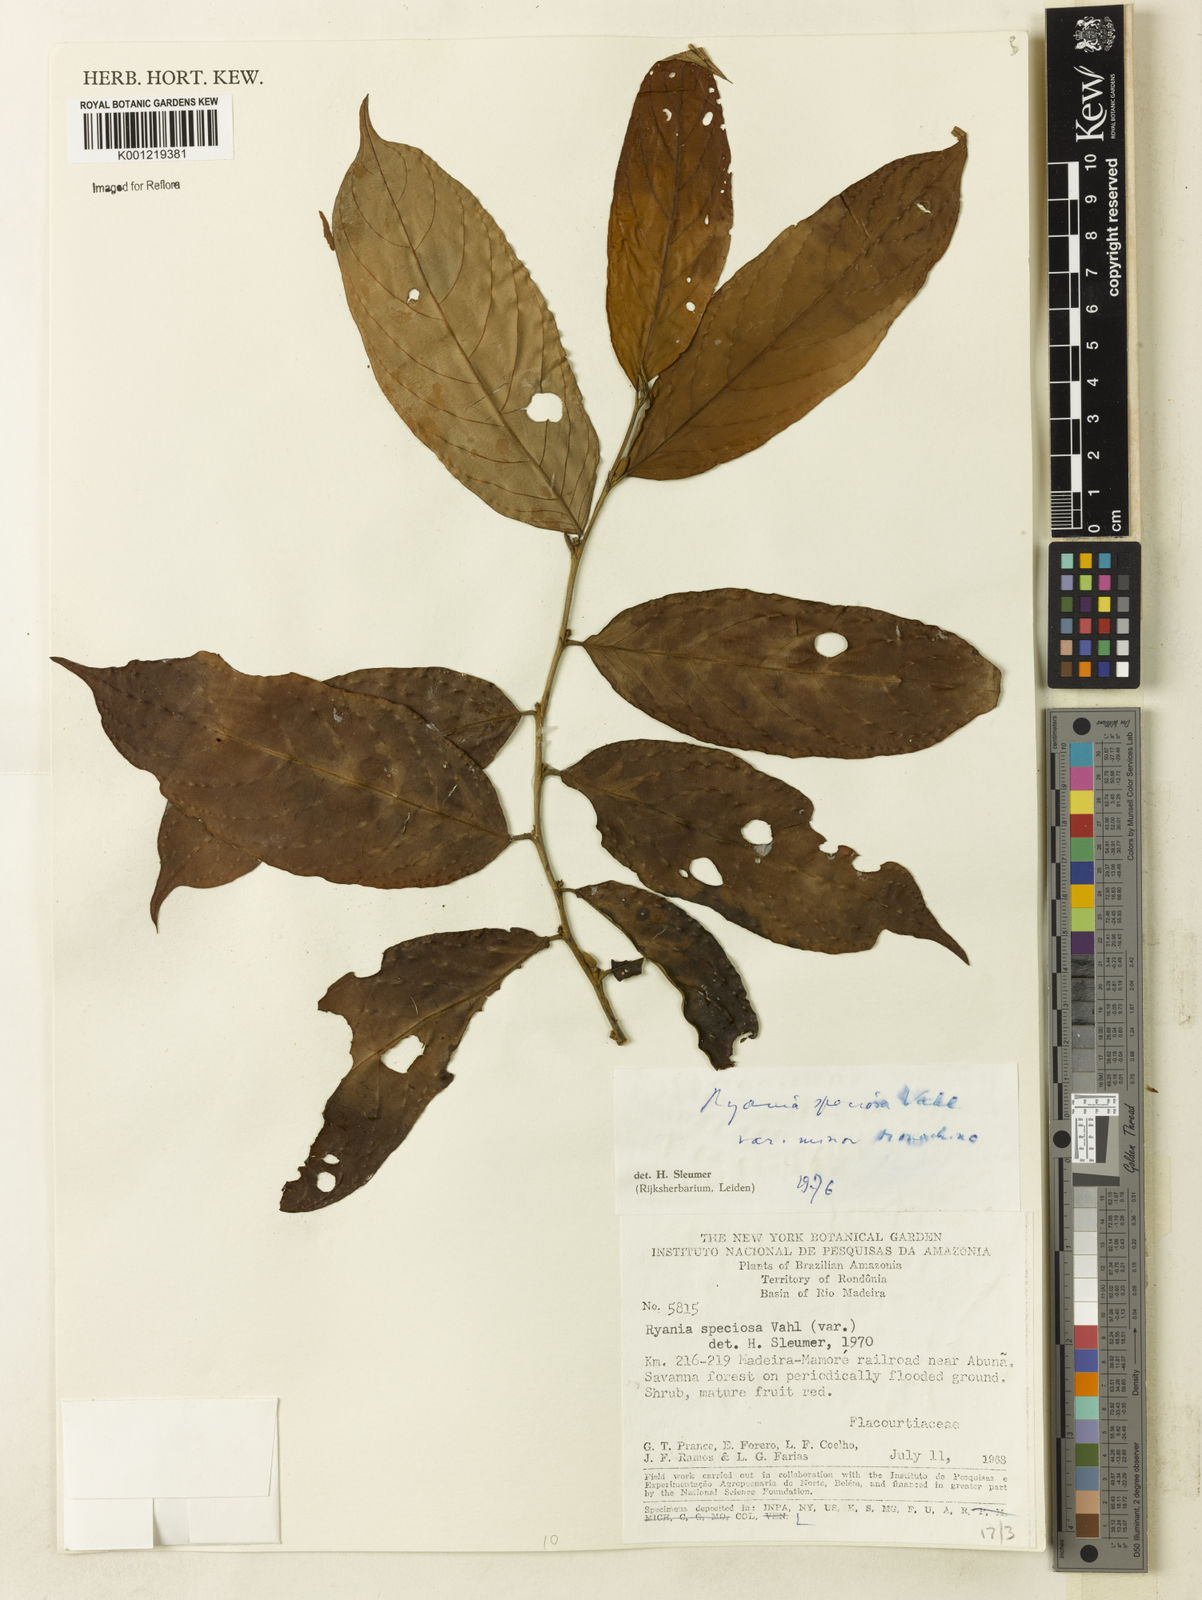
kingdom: Plantae
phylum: Tracheophyta
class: Magnoliopsida
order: Malpighiales
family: Salicaceae
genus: Ryania
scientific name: Ryania speciosa
